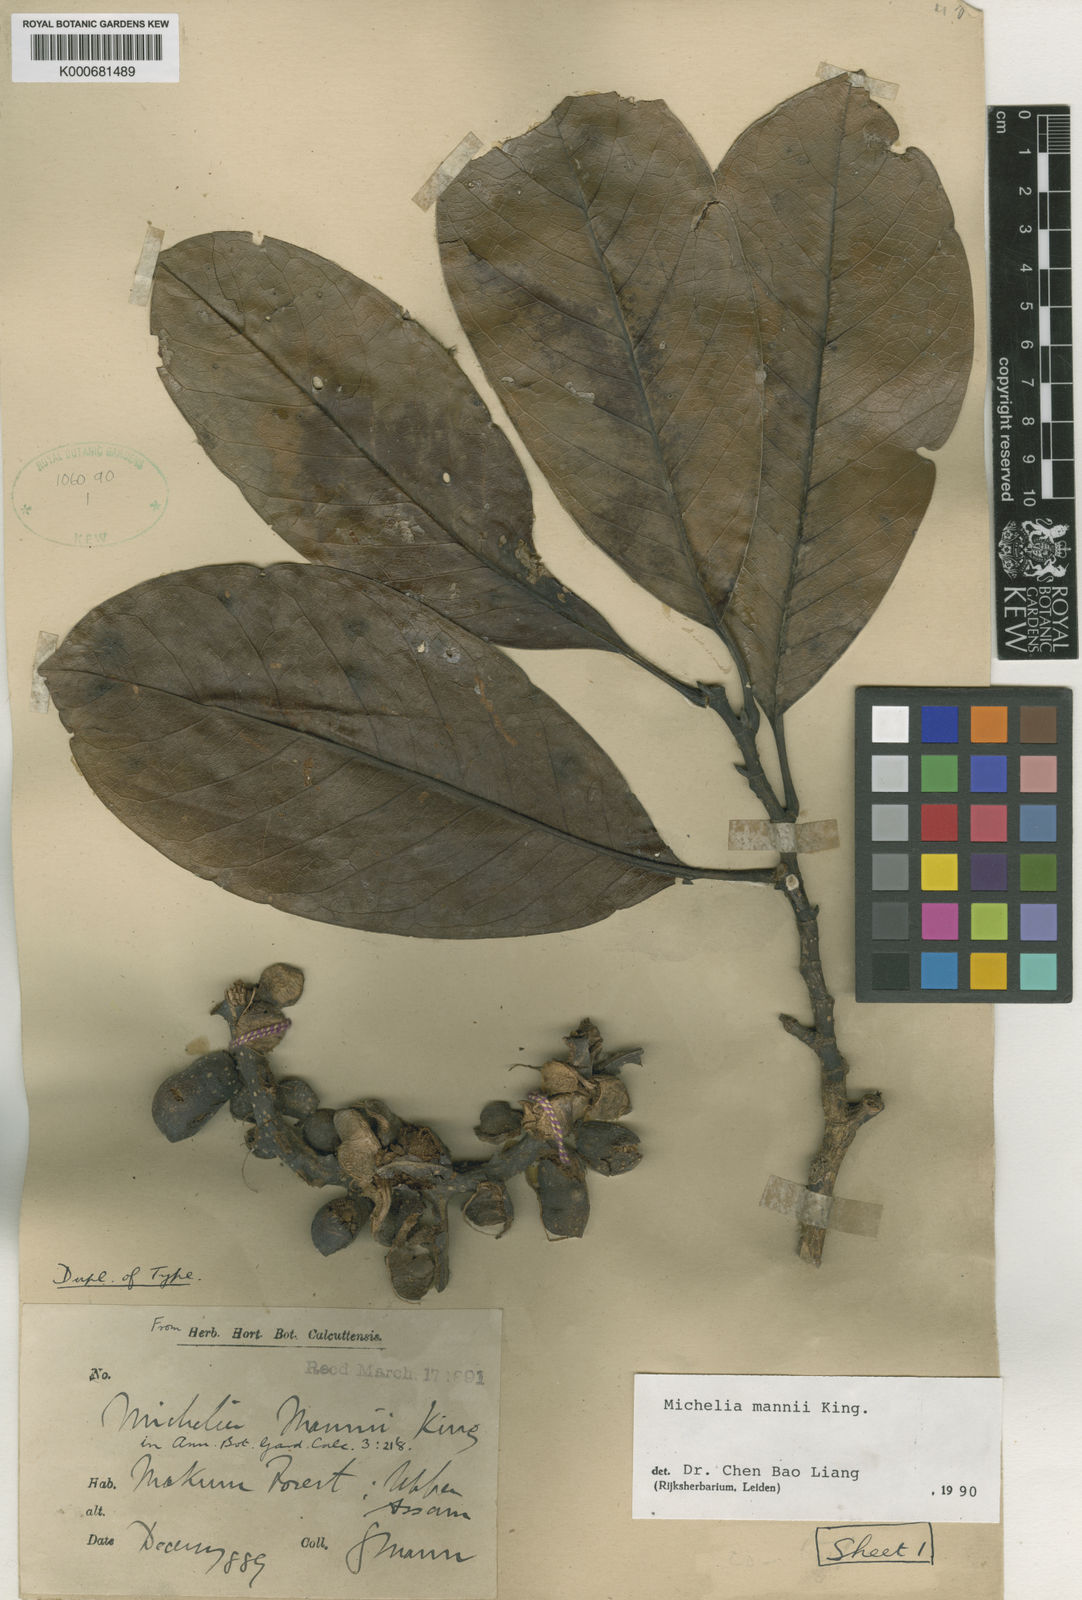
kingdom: Plantae
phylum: Tracheophyta
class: Magnoliopsida
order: Magnoliales
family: Magnoliaceae
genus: Magnolia
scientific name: Magnolia mannii
